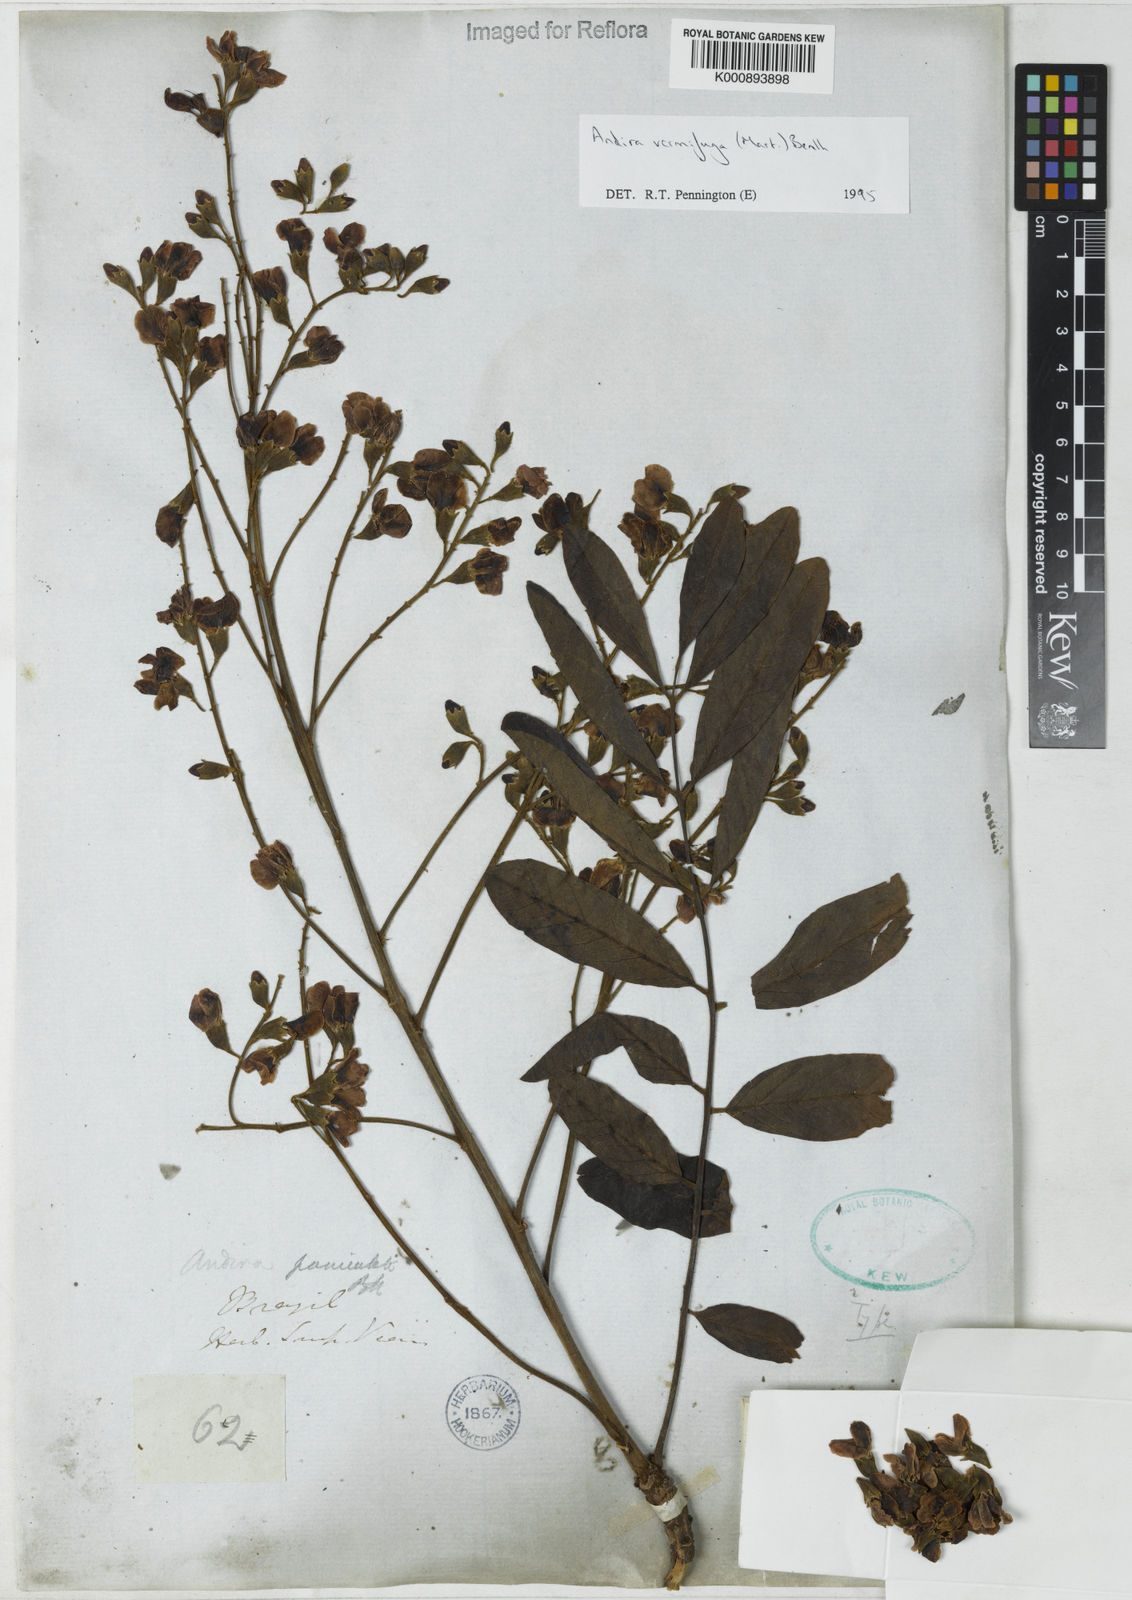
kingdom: Plantae
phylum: Tracheophyta
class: Magnoliopsida
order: Fabales
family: Fabaceae
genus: Andira
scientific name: Andira vermifuga
